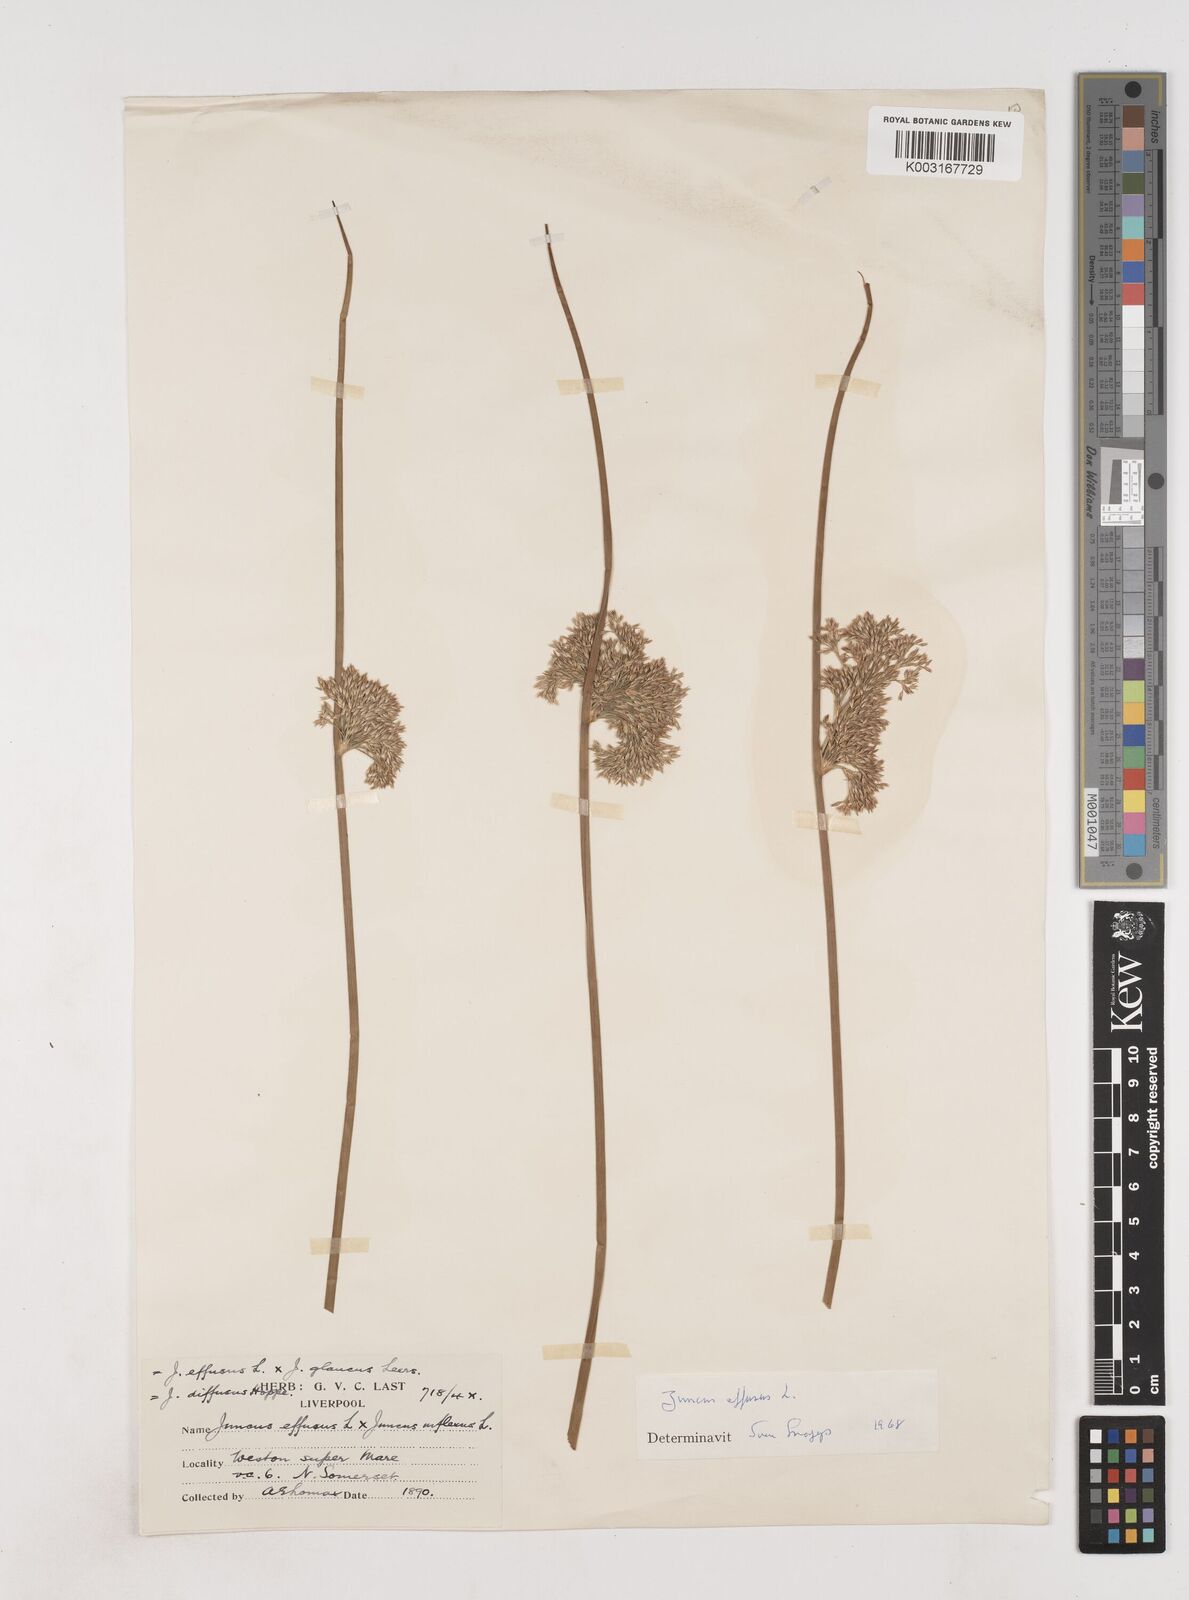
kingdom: Plantae
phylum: Tracheophyta
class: Liliopsida
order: Poales
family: Juncaceae
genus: Juncus
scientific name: Juncus effusus
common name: Soft rush
